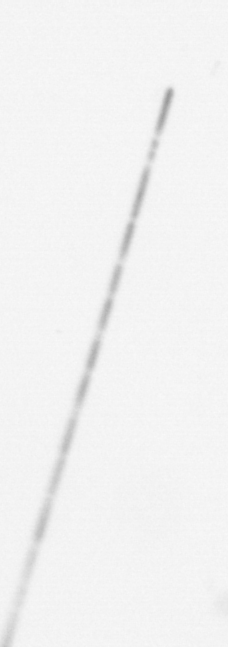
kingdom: Chromista
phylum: Ochrophyta
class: Bacillariophyceae
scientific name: Bacillariophyceae
